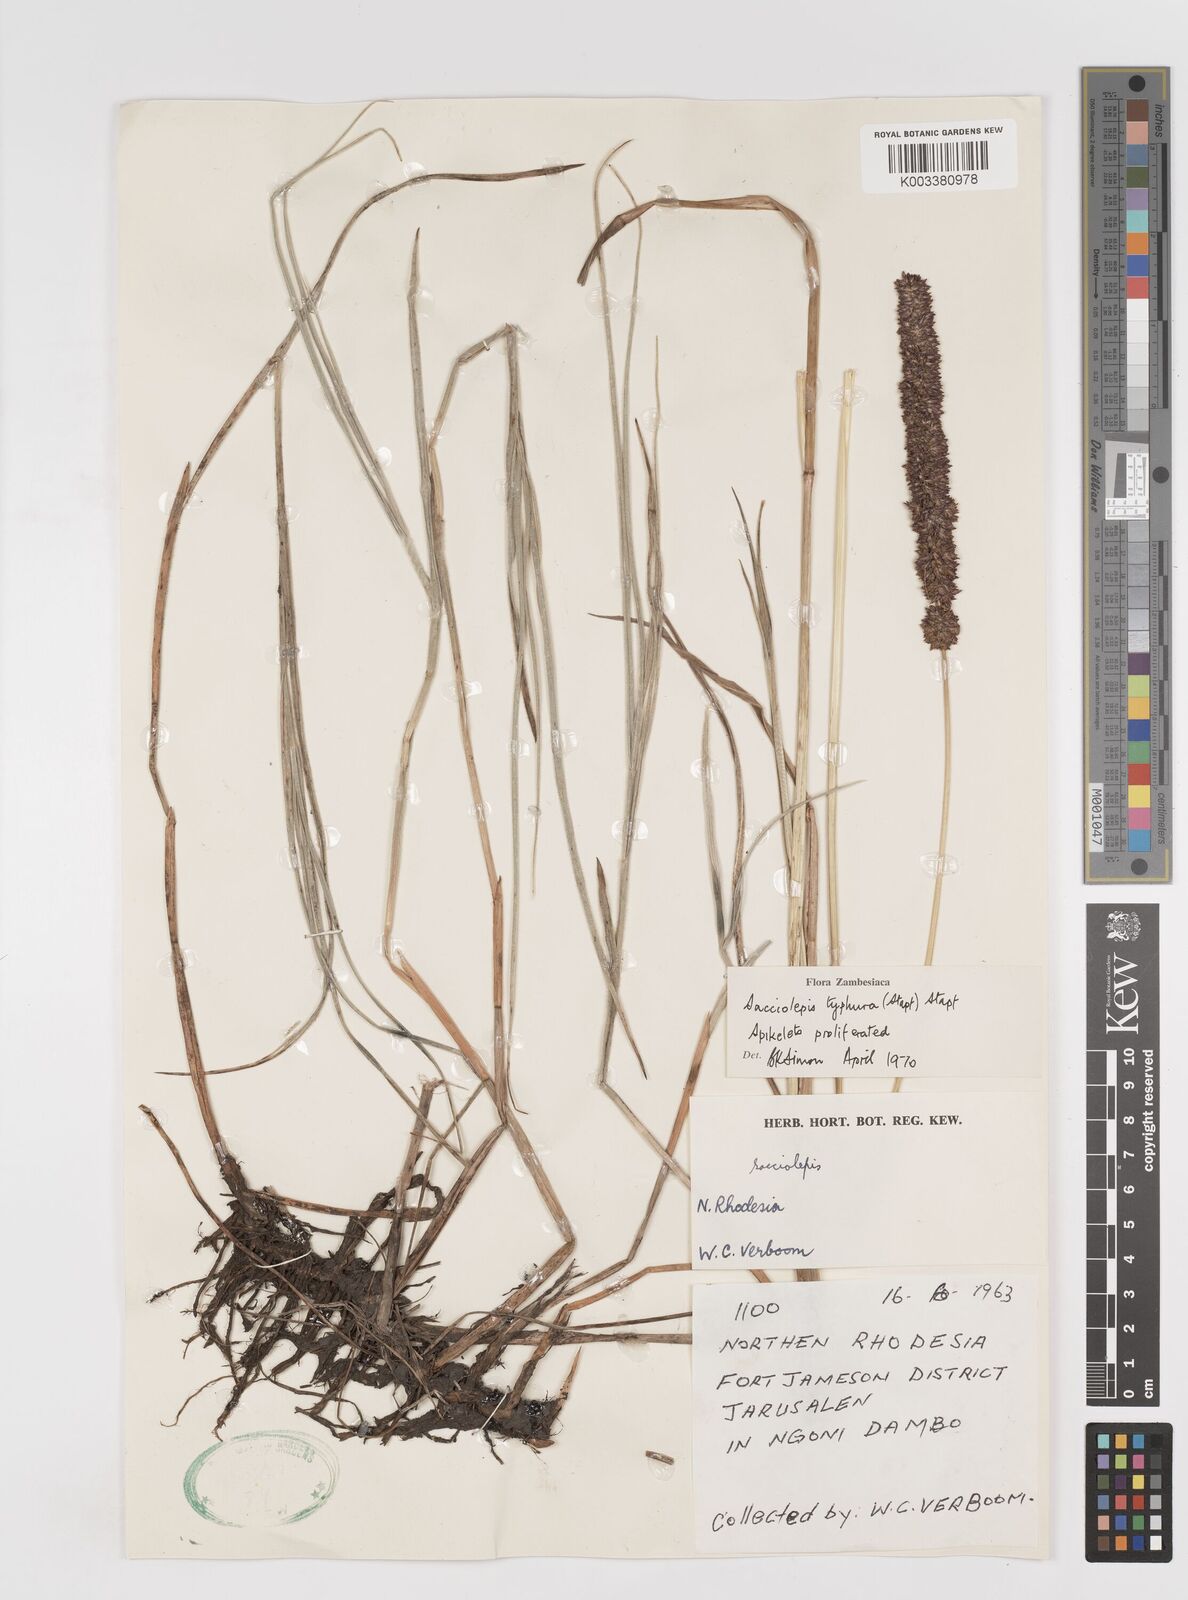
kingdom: Plantae
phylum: Tracheophyta
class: Liliopsida
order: Poales
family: Poaceae
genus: Sacciolepis
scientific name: Sacciolepis typhura
